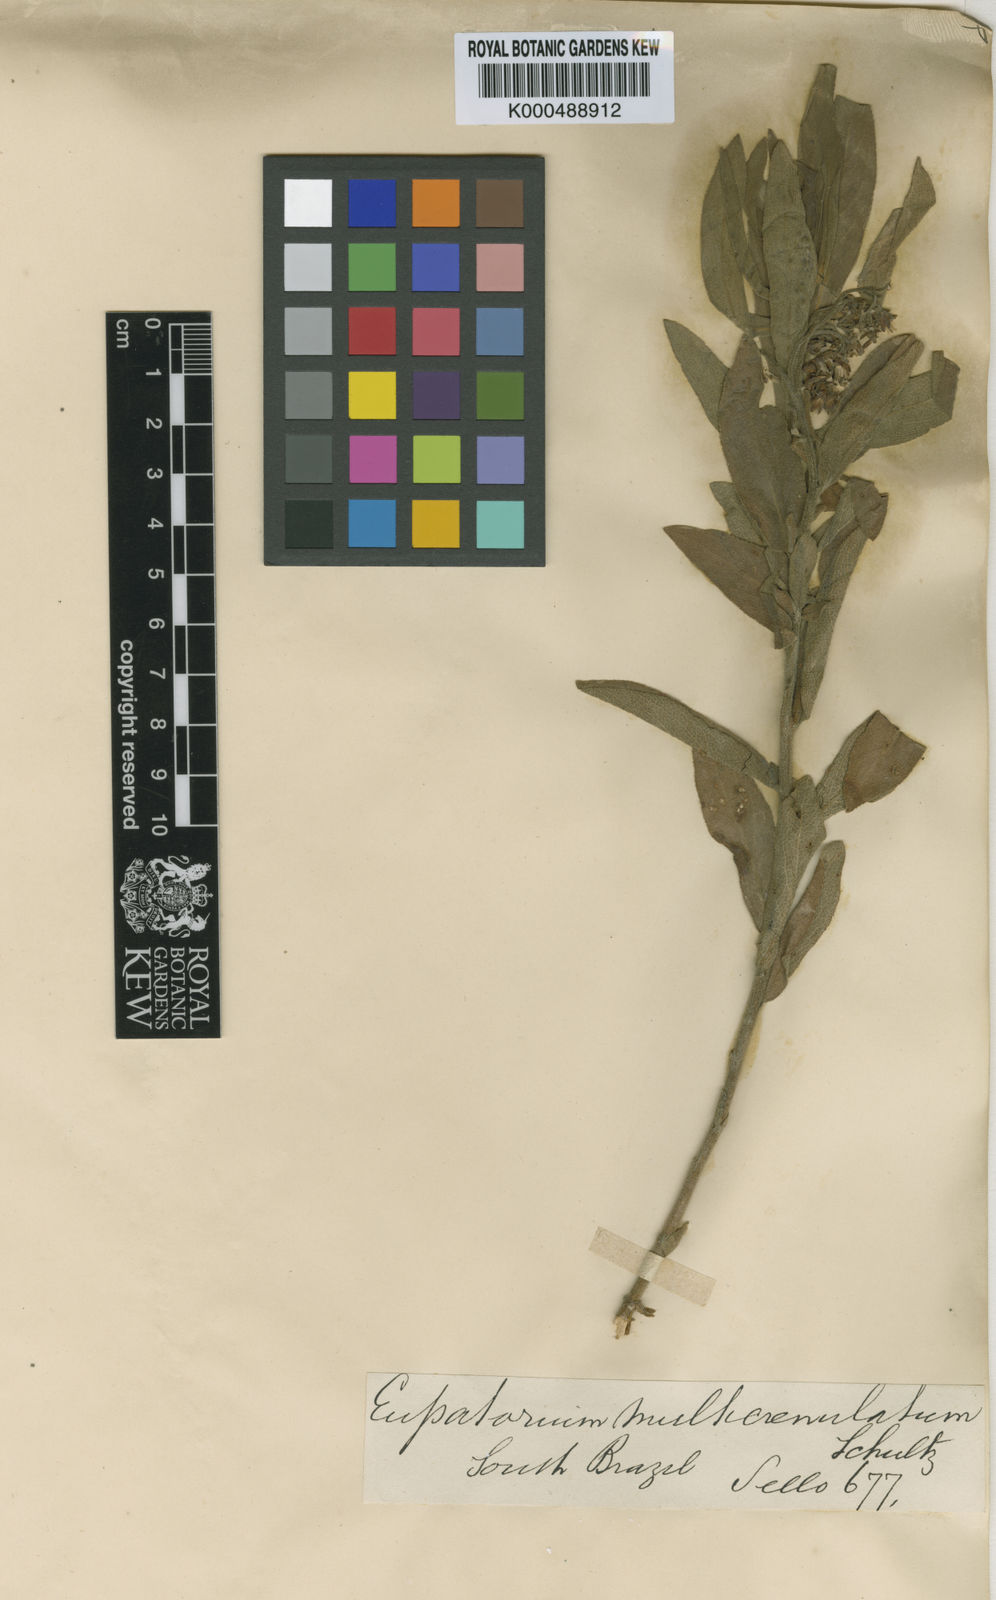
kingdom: Plantae
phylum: Tracheophyta
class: Magnoliopsida
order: Asterales
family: Asteraceae
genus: Disynaphia
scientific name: Disynaphia multicrenulata
